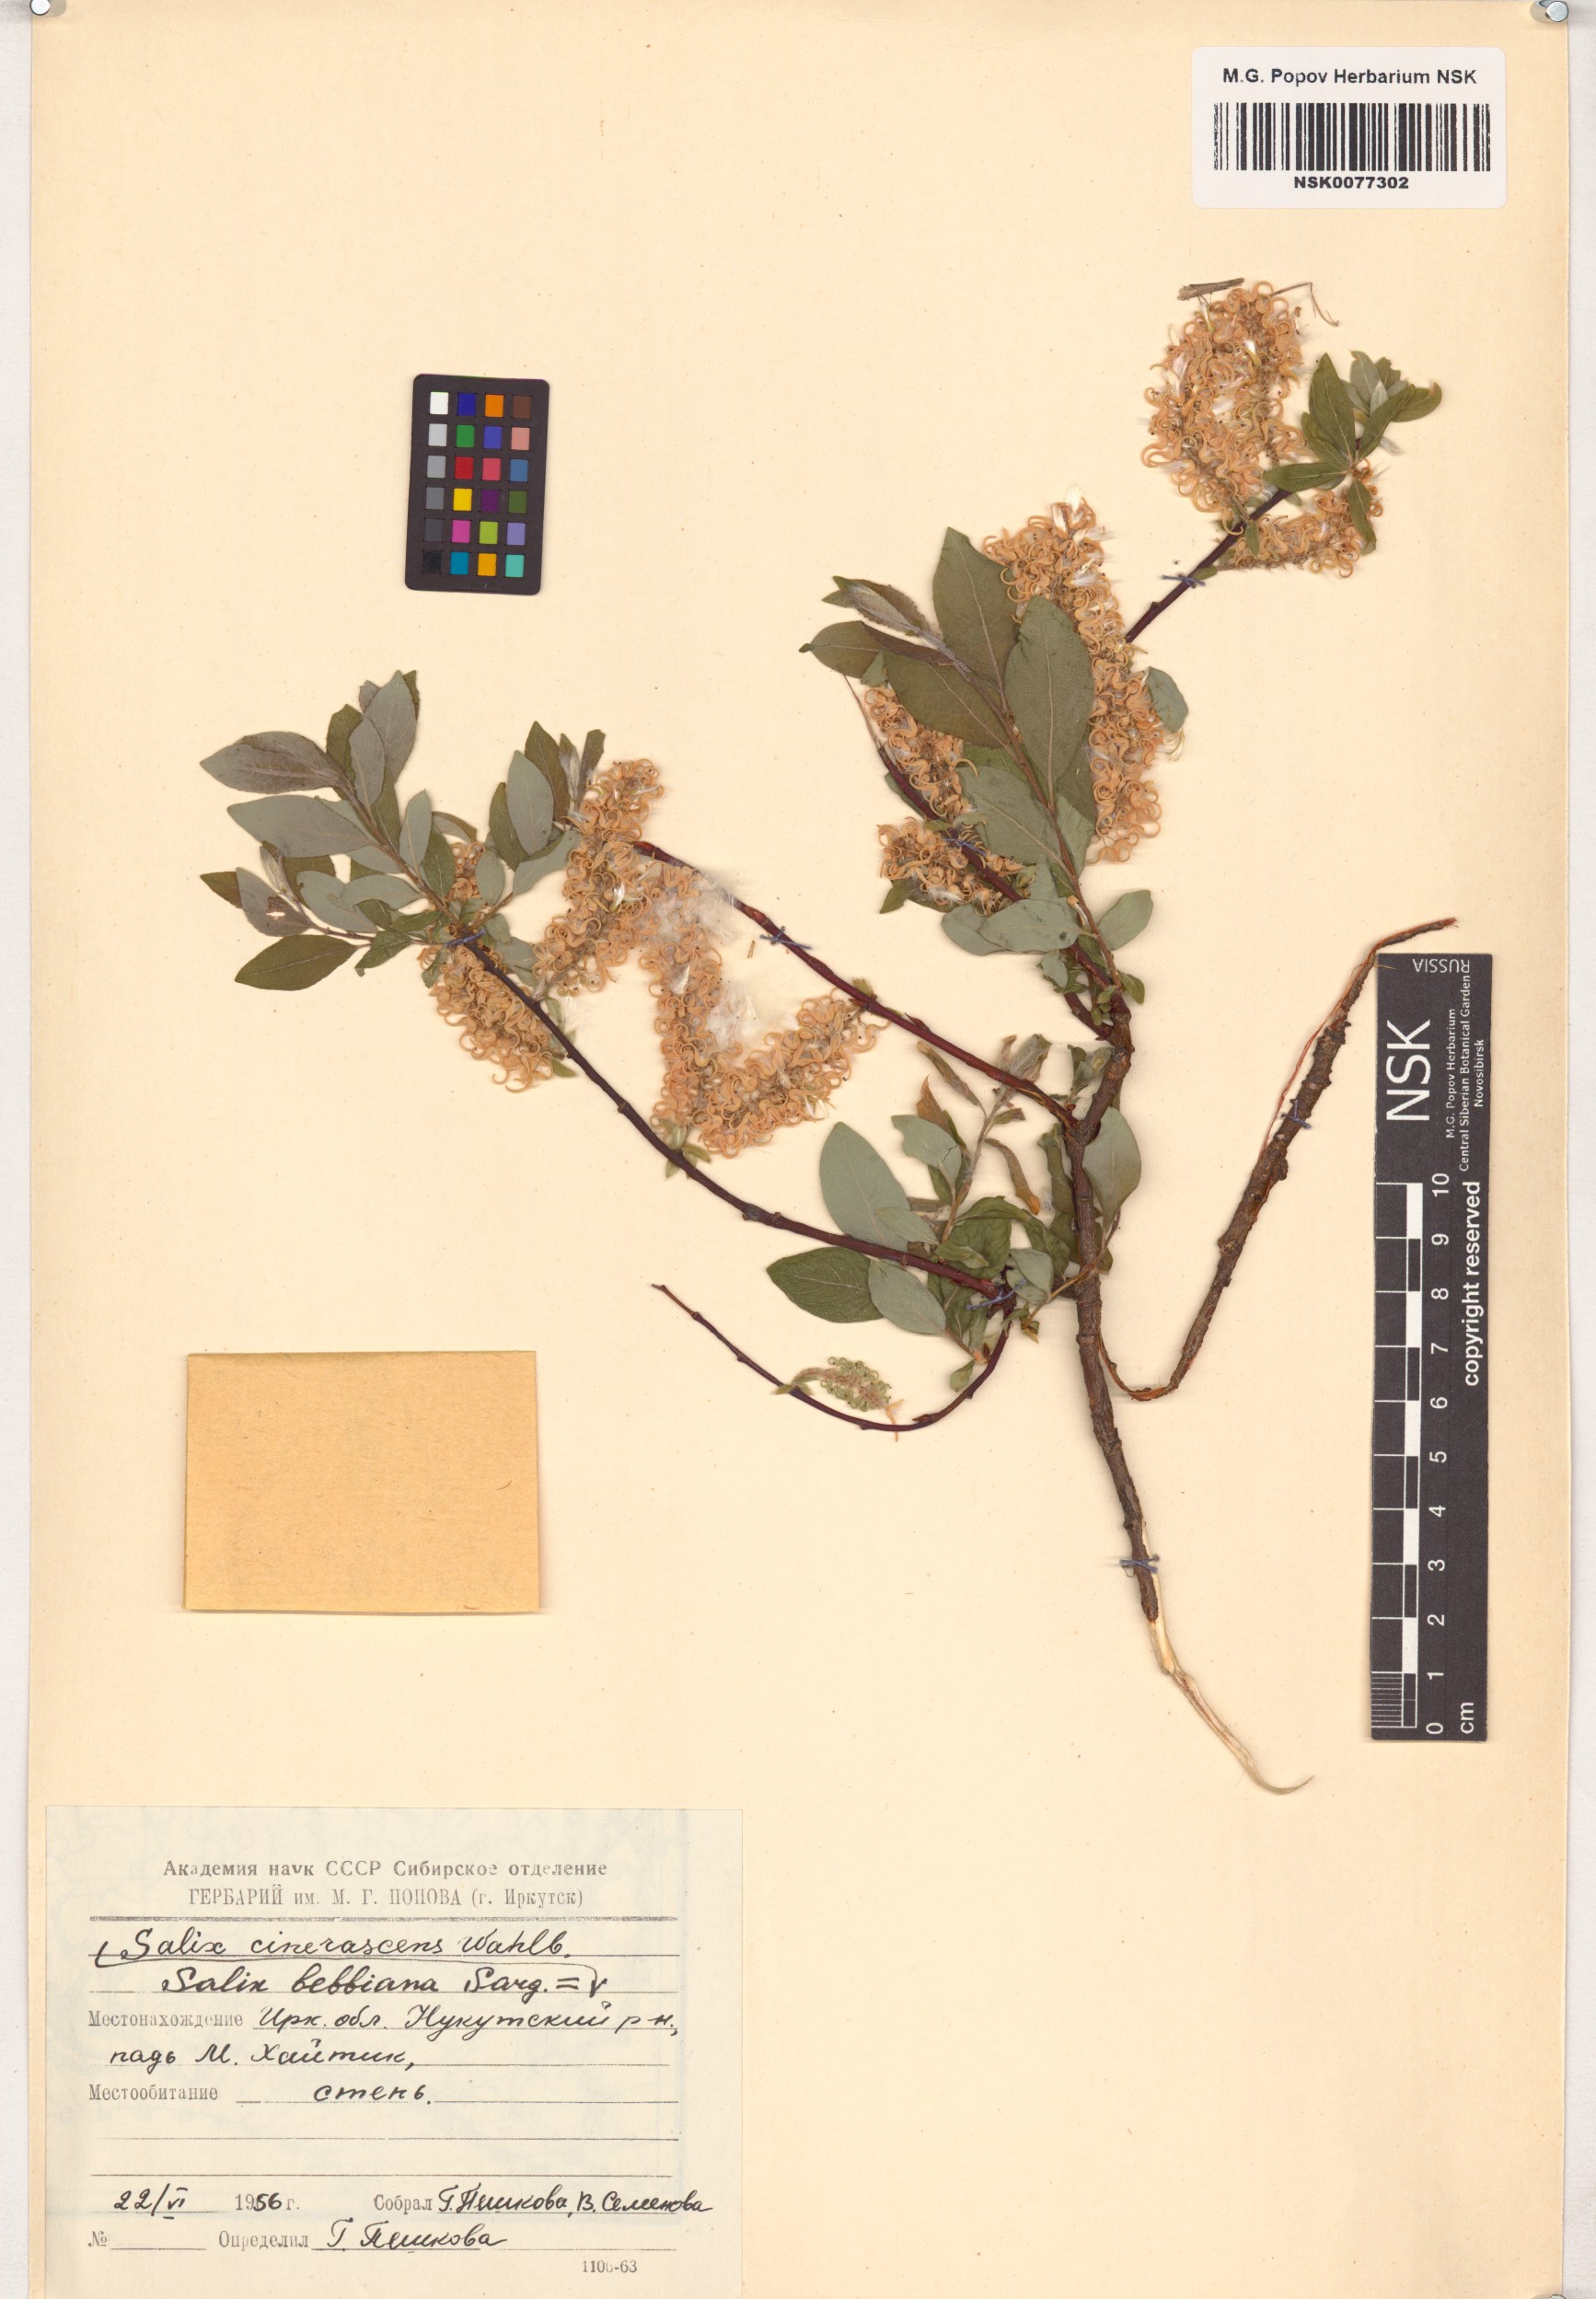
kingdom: Plantae
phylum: Tracheophyta
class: Magnoliopsida
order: Malpighiales
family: Salicaceae
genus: Salix
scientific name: Salix bebbiana
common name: Bebb's willow
